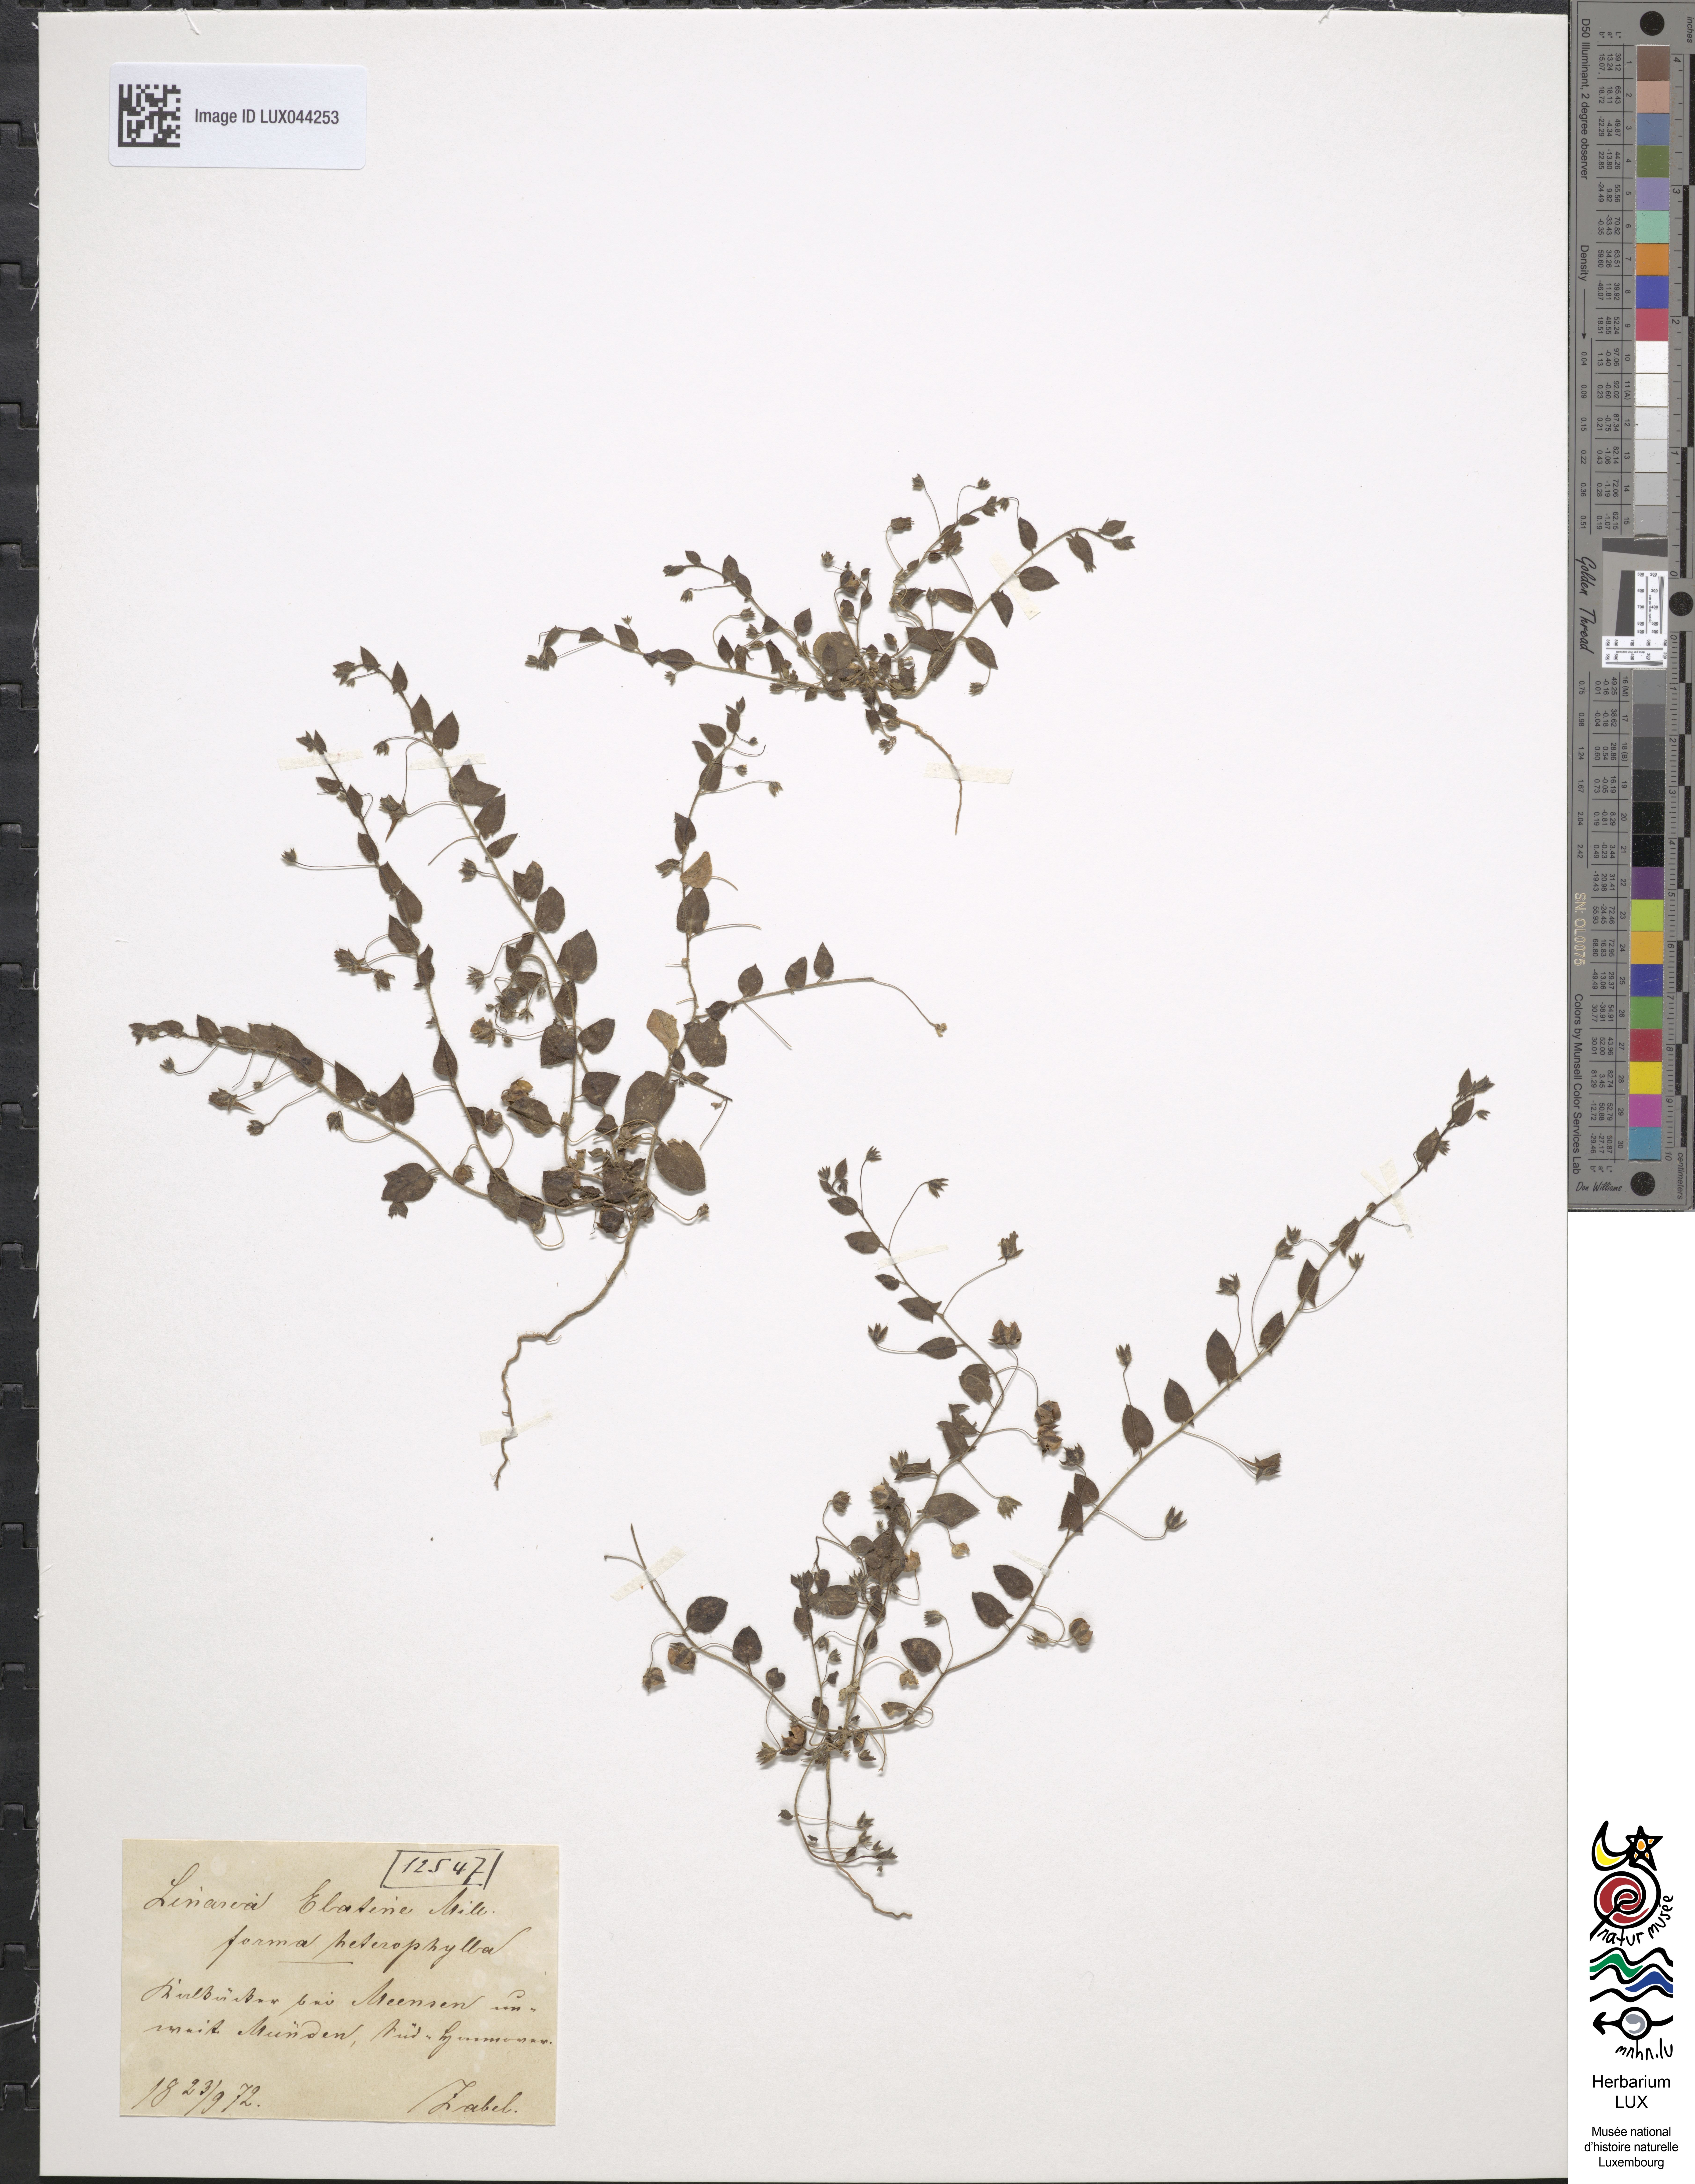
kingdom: Plantae
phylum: Tracheophyta
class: Magnoliopsida
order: Lamiales
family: Plantaginaceae
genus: Kickxia
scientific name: Kickxia elatine
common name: Sharp-leaved fluellen
